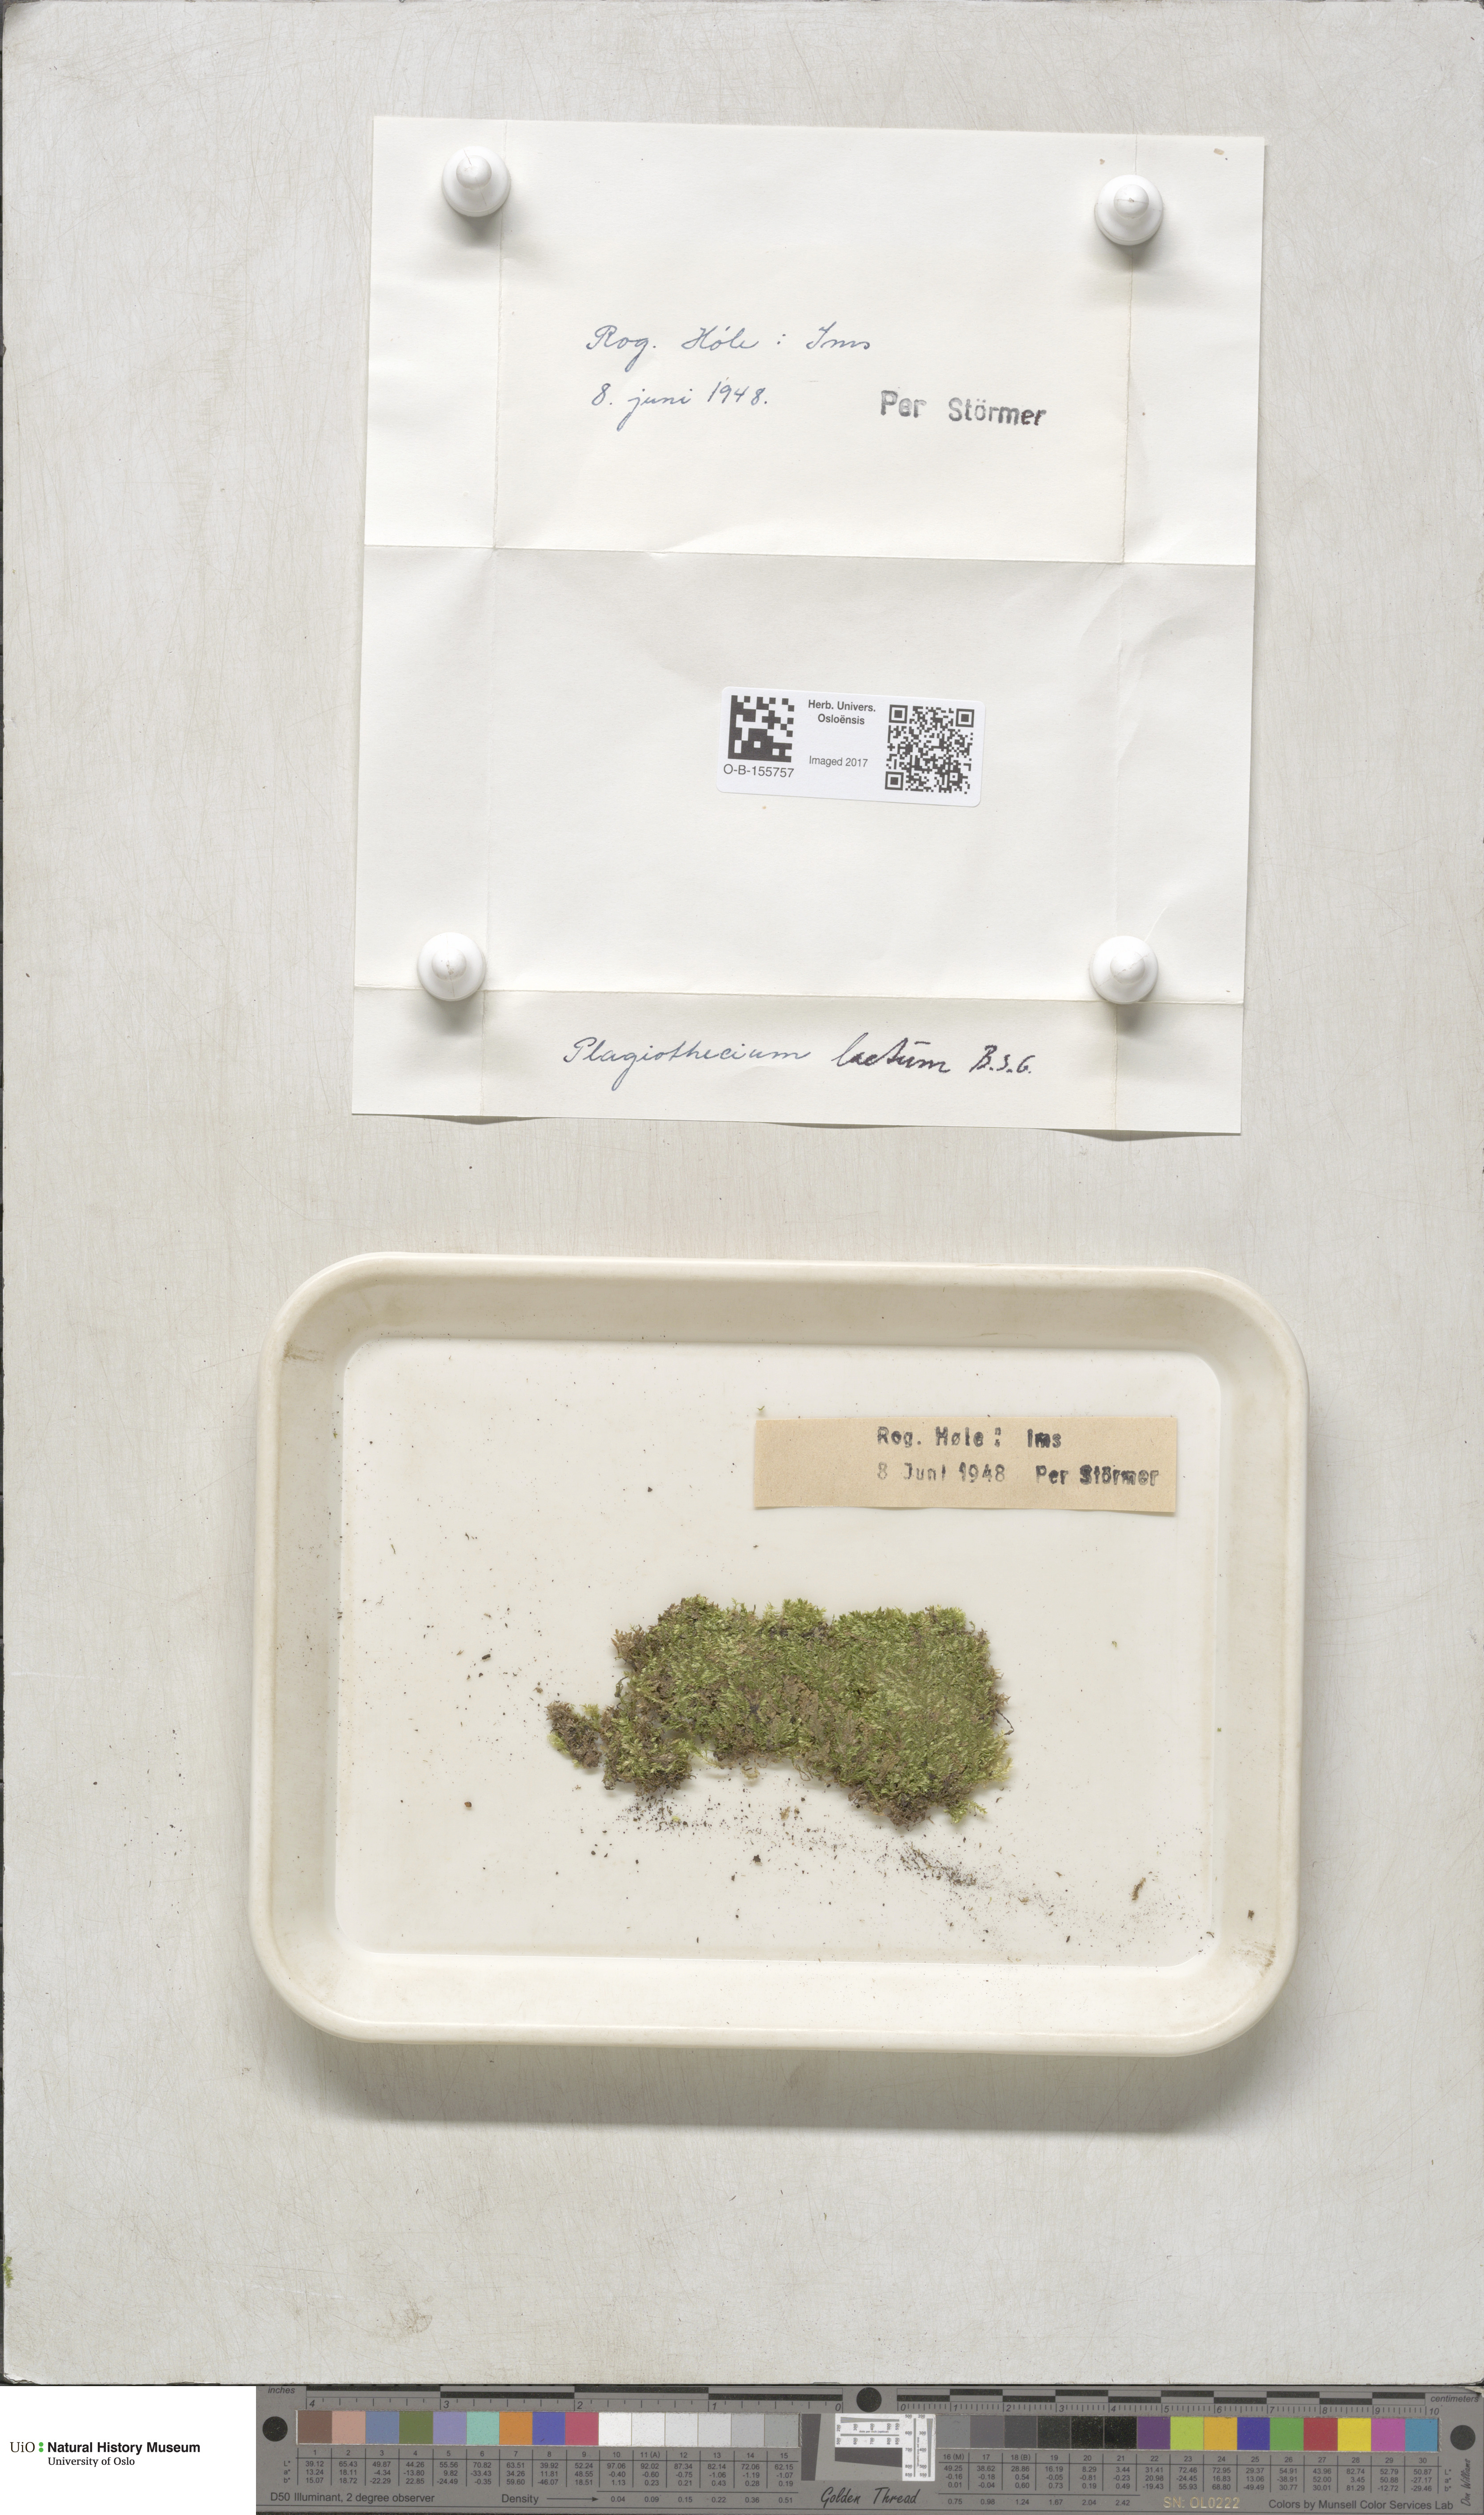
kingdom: Plantae
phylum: Bryophyta
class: Bryopsida
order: Hypnales
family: Plagiotheciaceae
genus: Plagiothecium
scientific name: Plagiothecium laetum
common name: Bright silk moss
